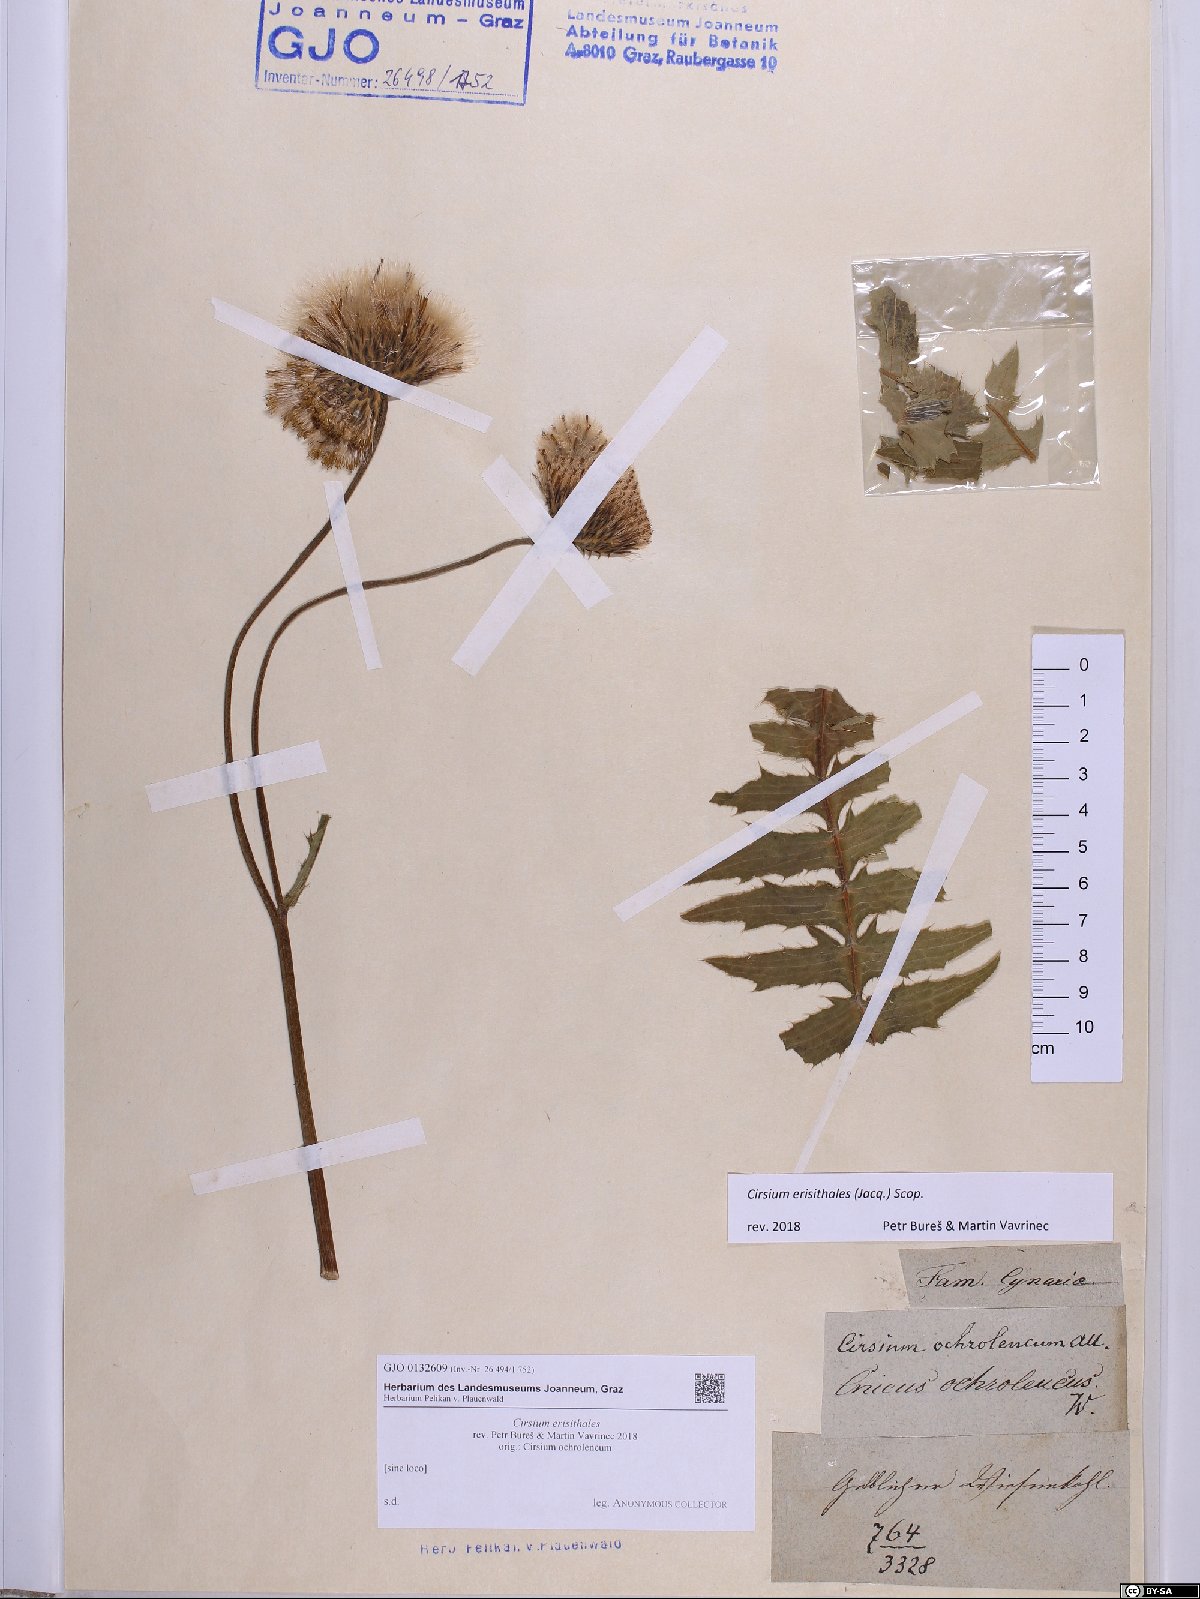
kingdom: Plantae
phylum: Tracheophyta
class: Magnoliopsida
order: Asterales
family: Asteraceae
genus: Cirsium
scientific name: Cirsium erisithales
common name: Yellow thistle
